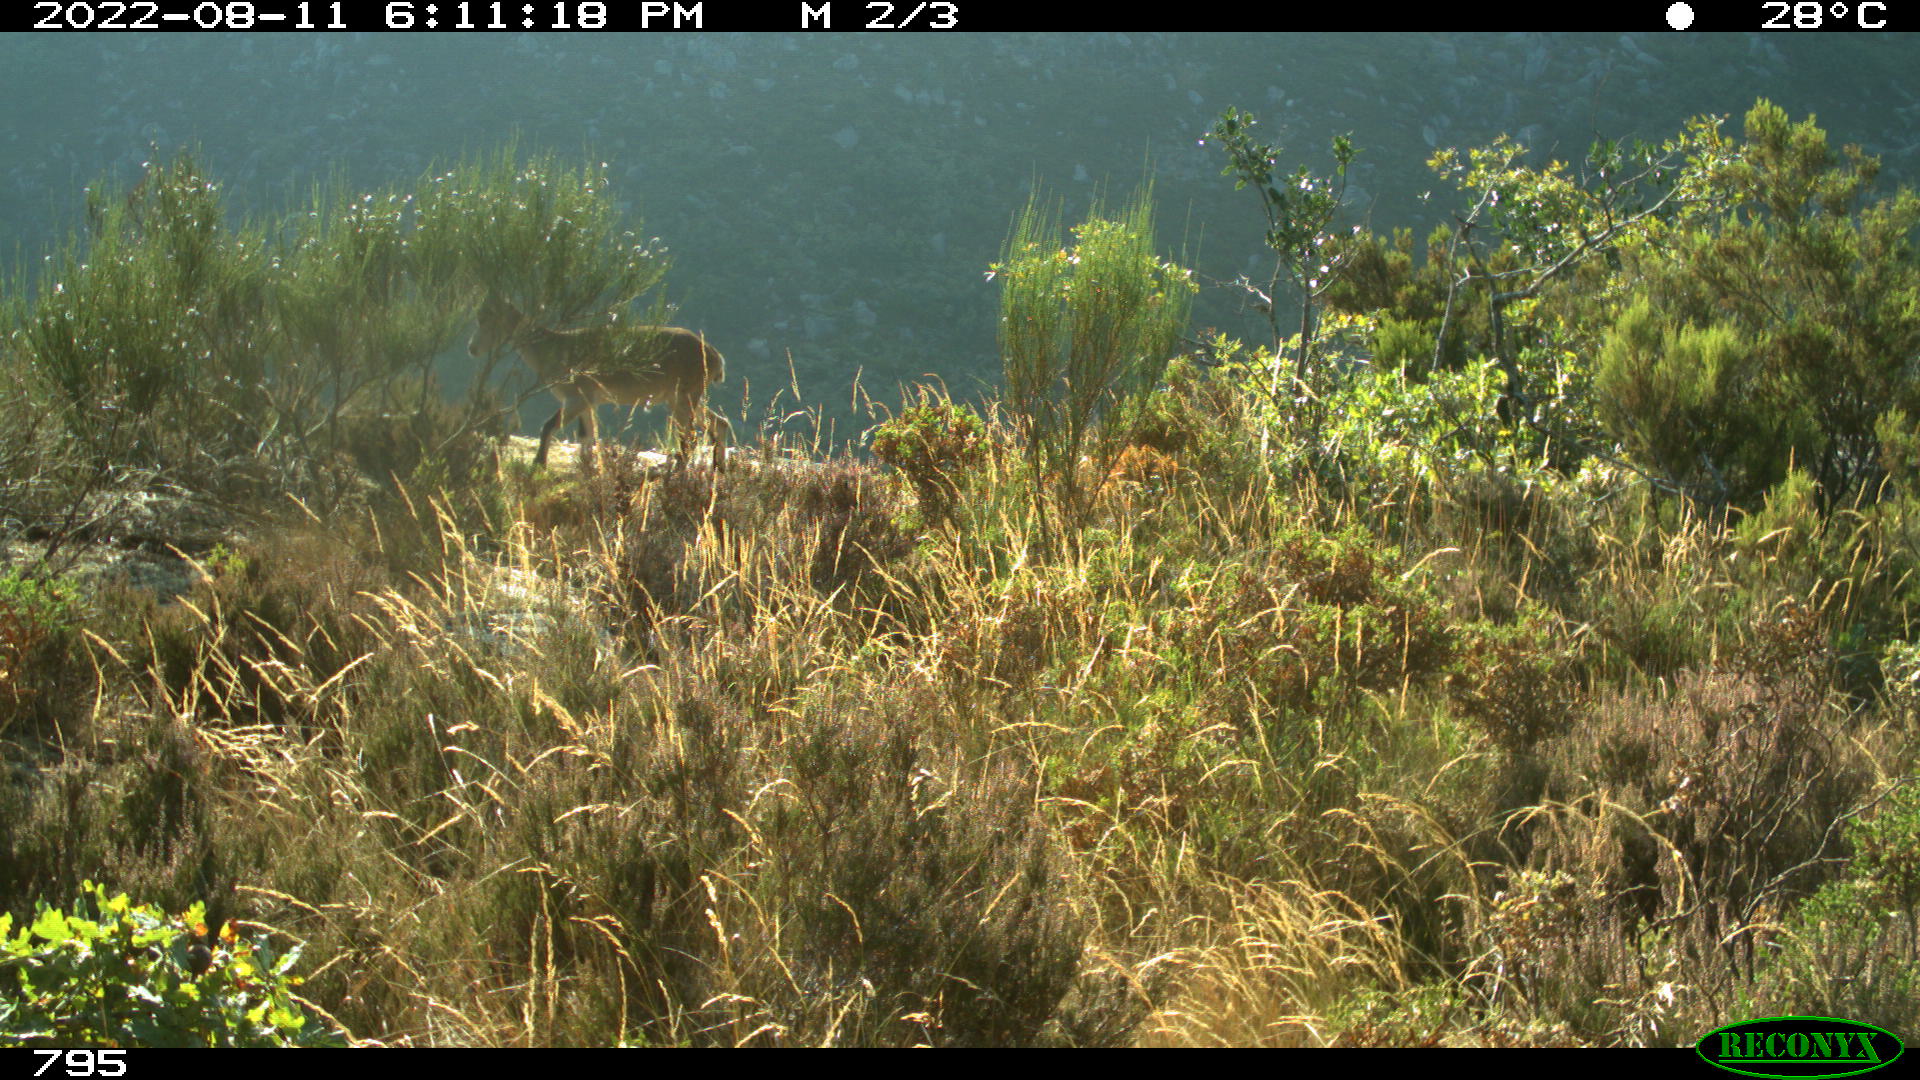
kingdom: Animalia
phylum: Chordata
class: Mammalia
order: Artiodactyla
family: Bovidae
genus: Capra
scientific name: Capra pyrenaica
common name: Spanish ibex
